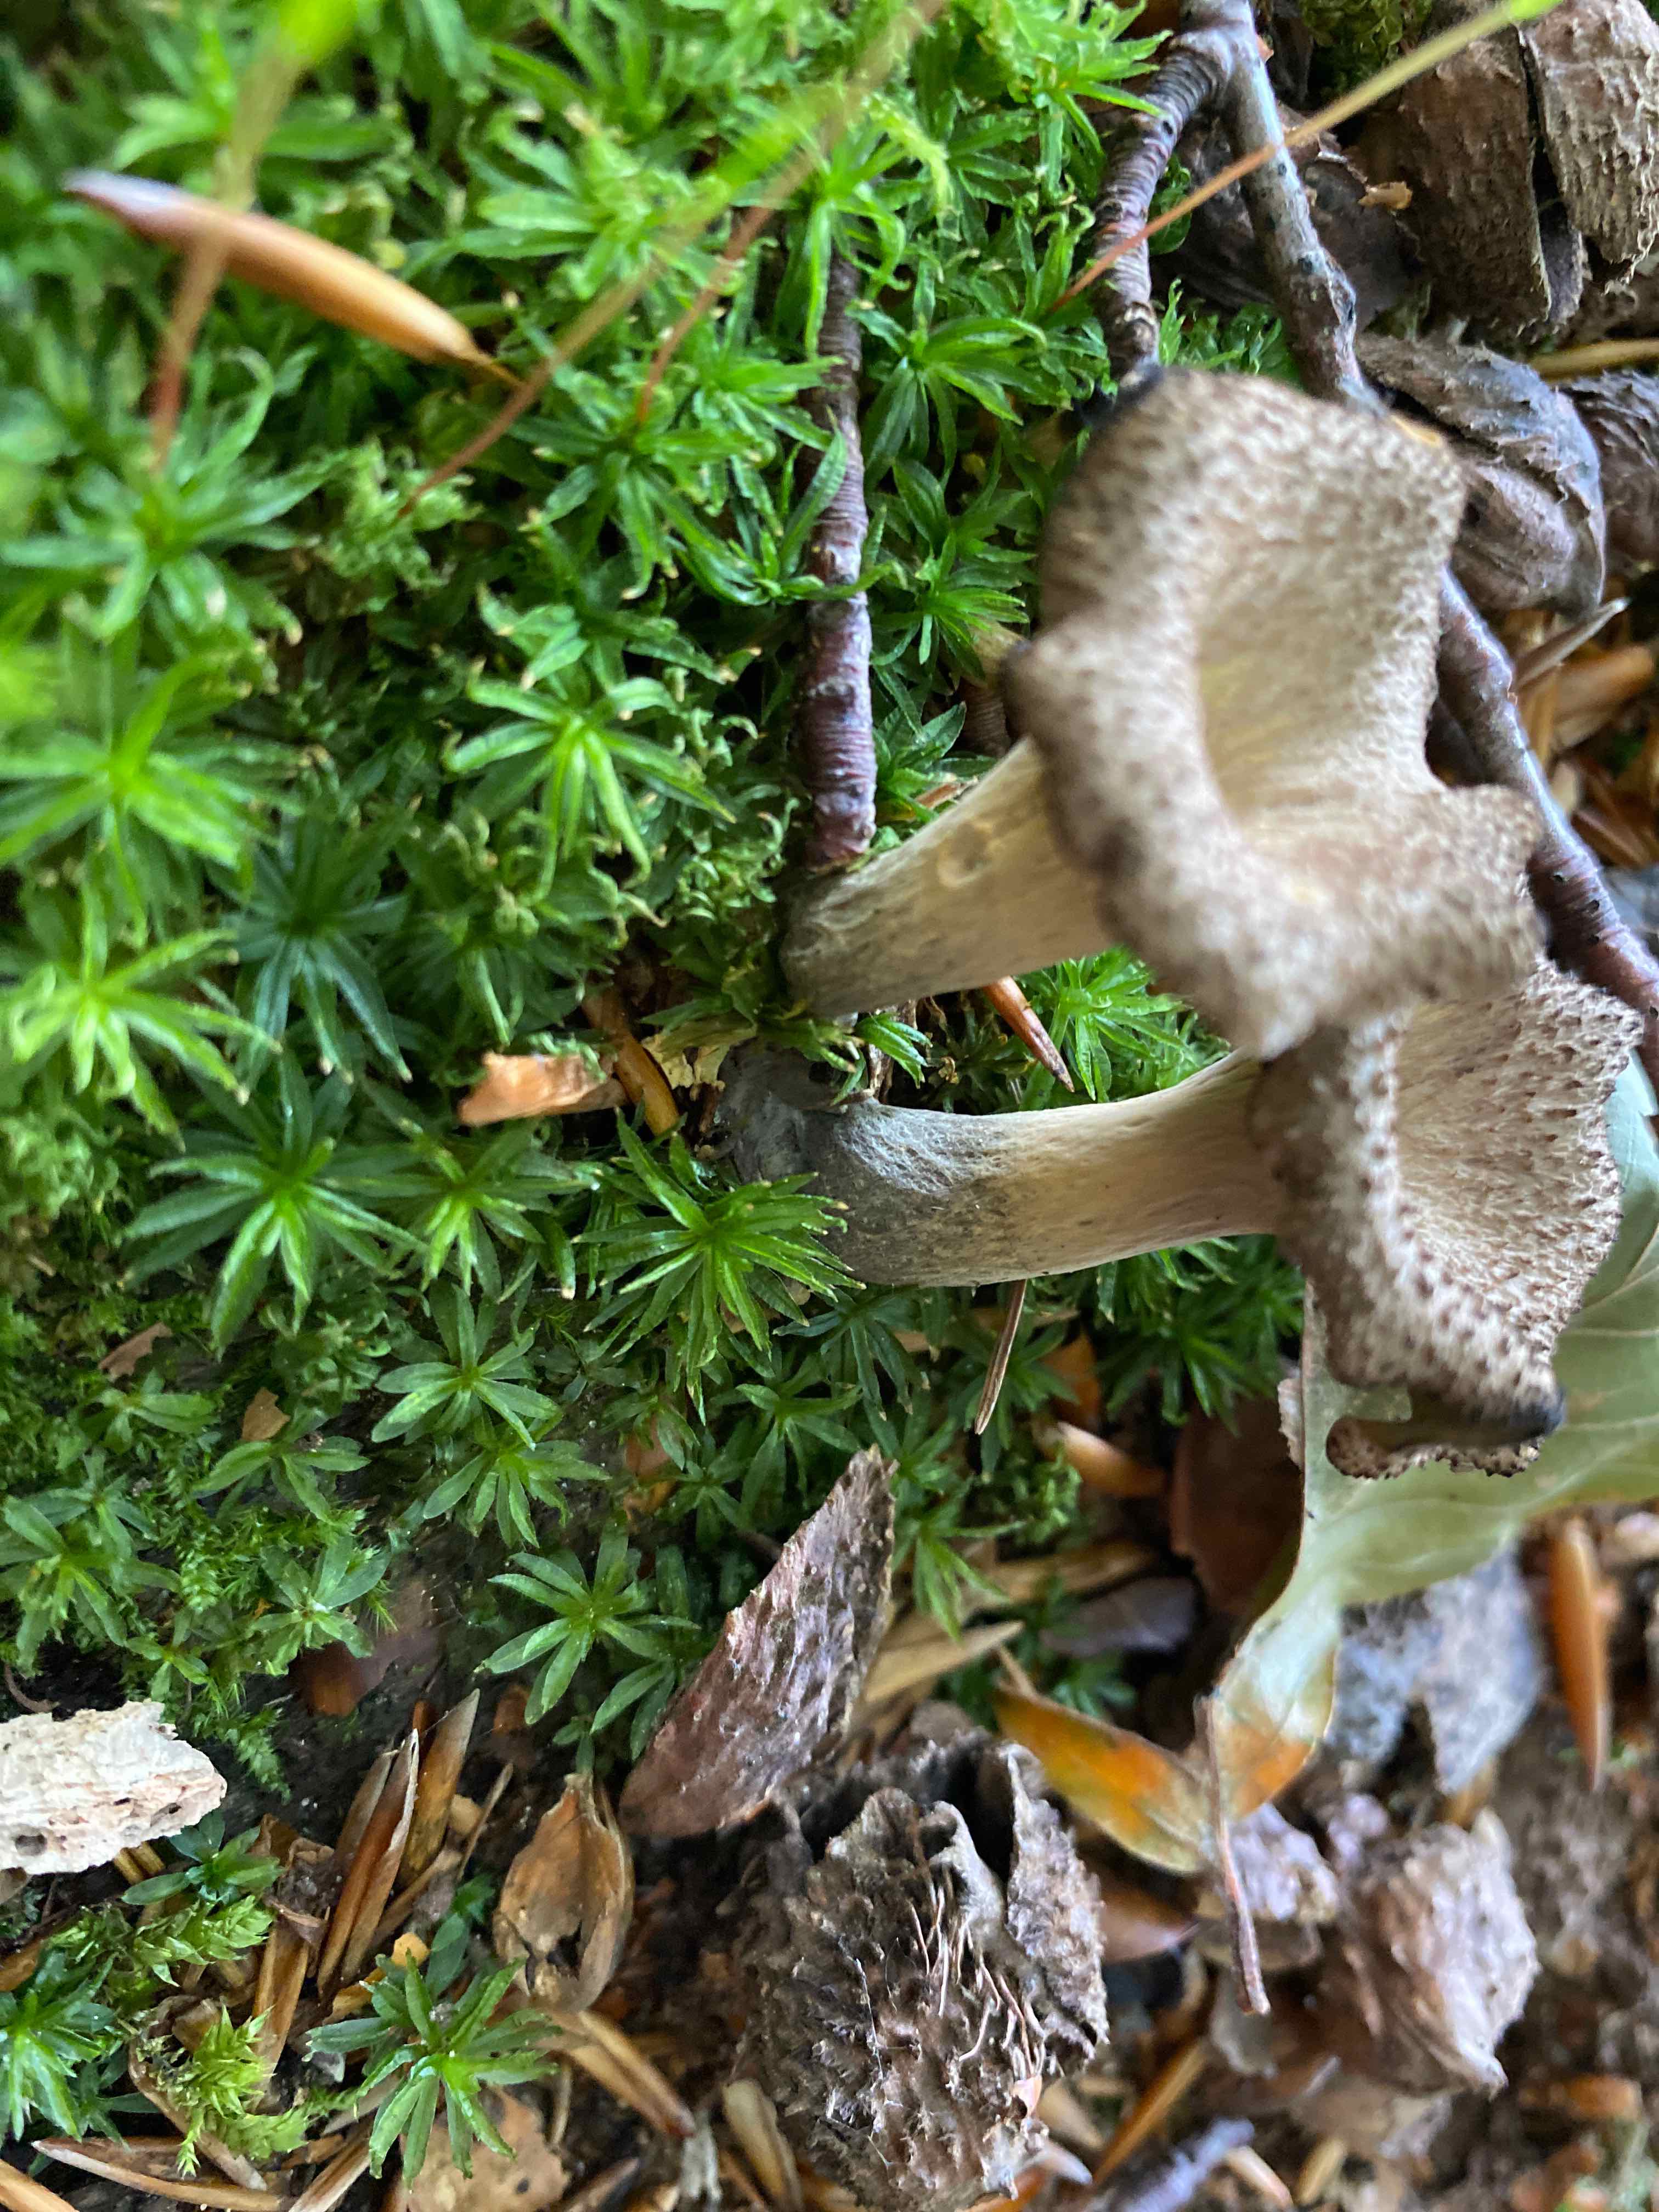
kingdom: Fungi
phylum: Basidiomycota
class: Agaricomycetes
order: Cantharellales
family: Hydnaceae
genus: Craterellus
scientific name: Craterellus cornucopioides
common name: trompetsvamp
